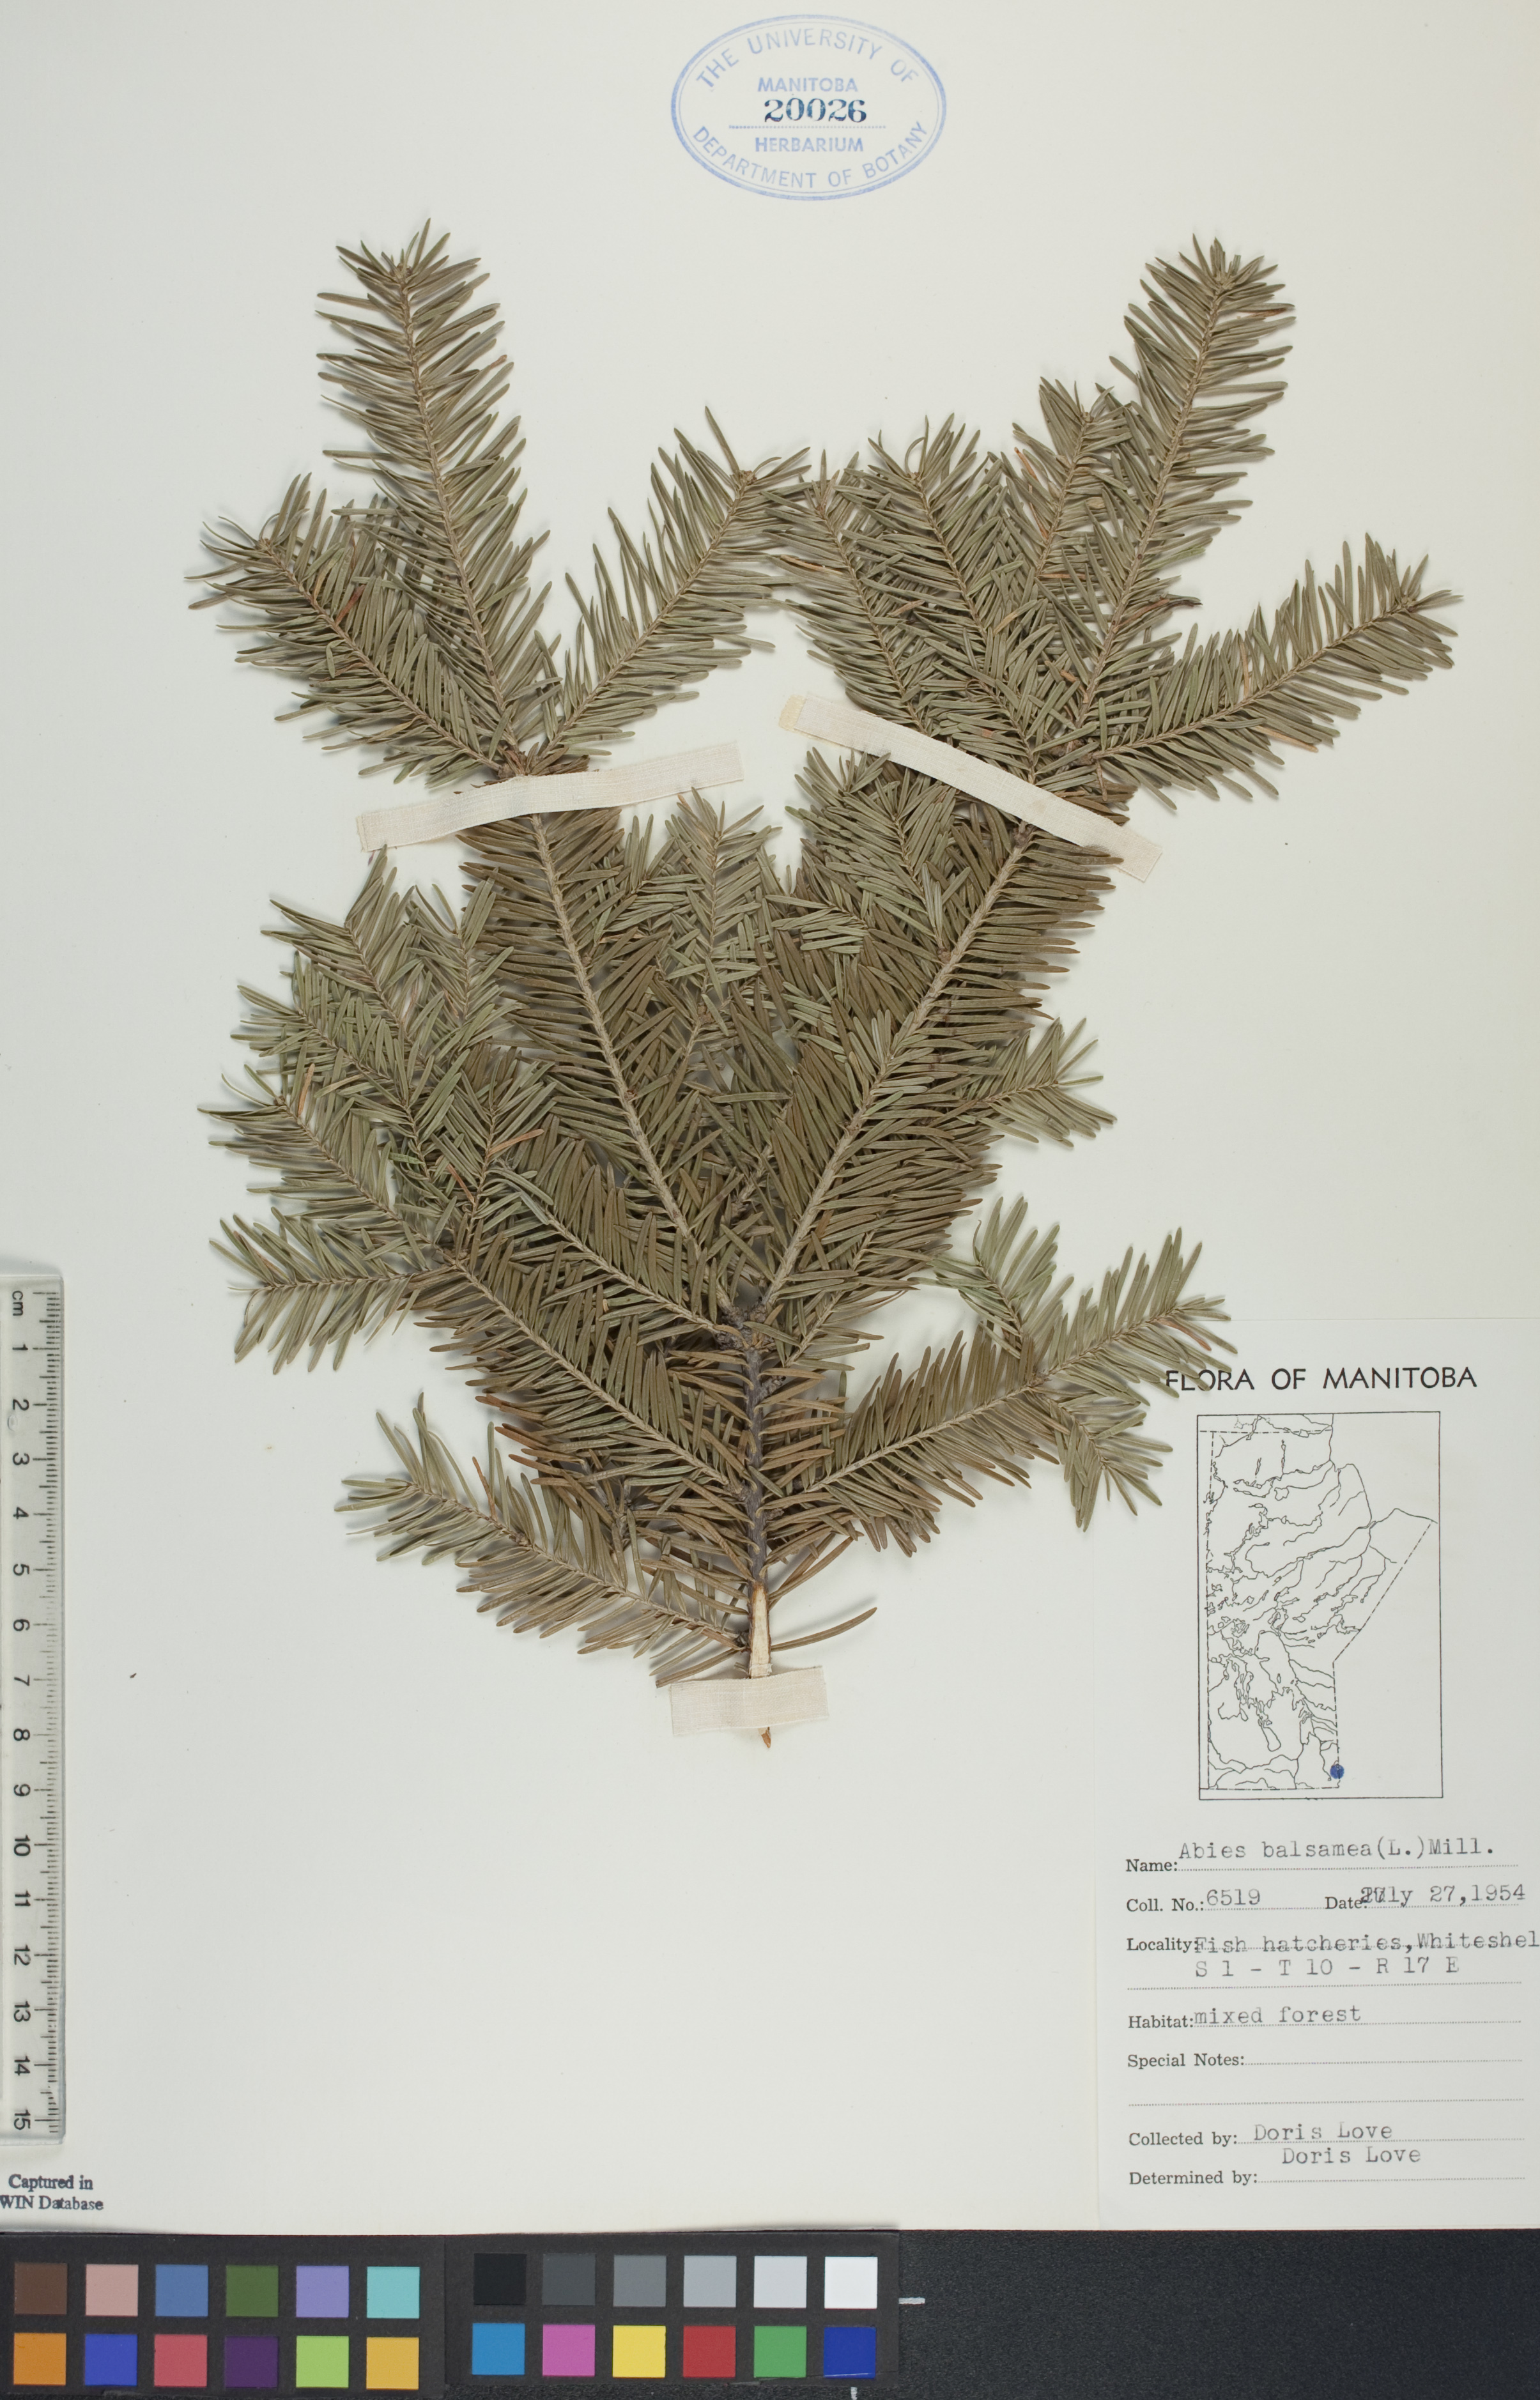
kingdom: Plantae
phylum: Tracheophyta
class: Pinopsida
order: Pinales
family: Pinaceae
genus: Abies
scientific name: Abies balsamea
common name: Balsam fir
